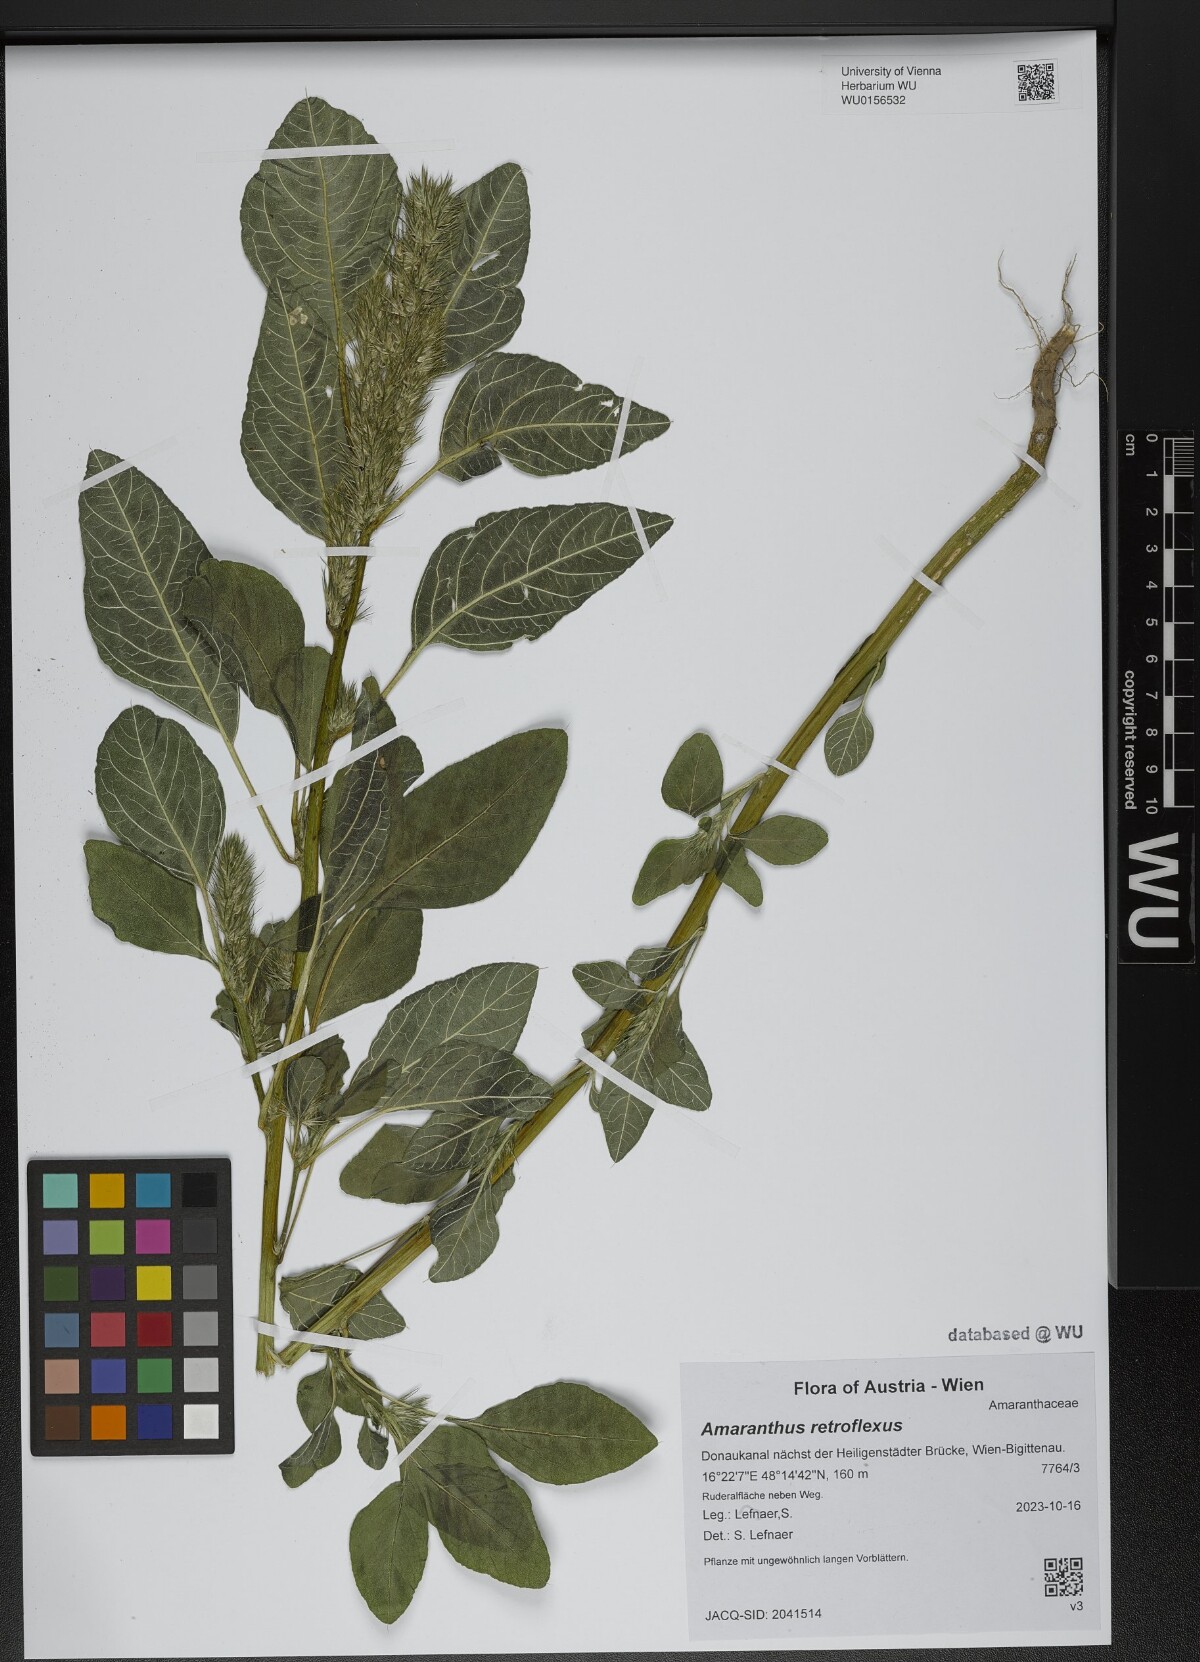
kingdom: Plantae
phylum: Tracheophyta
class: Magnoliopsida
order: Caryophyllales
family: Amaranthaceae
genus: Amaranthus
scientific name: Amaranthus retroflexus
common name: Redroot amaranth
